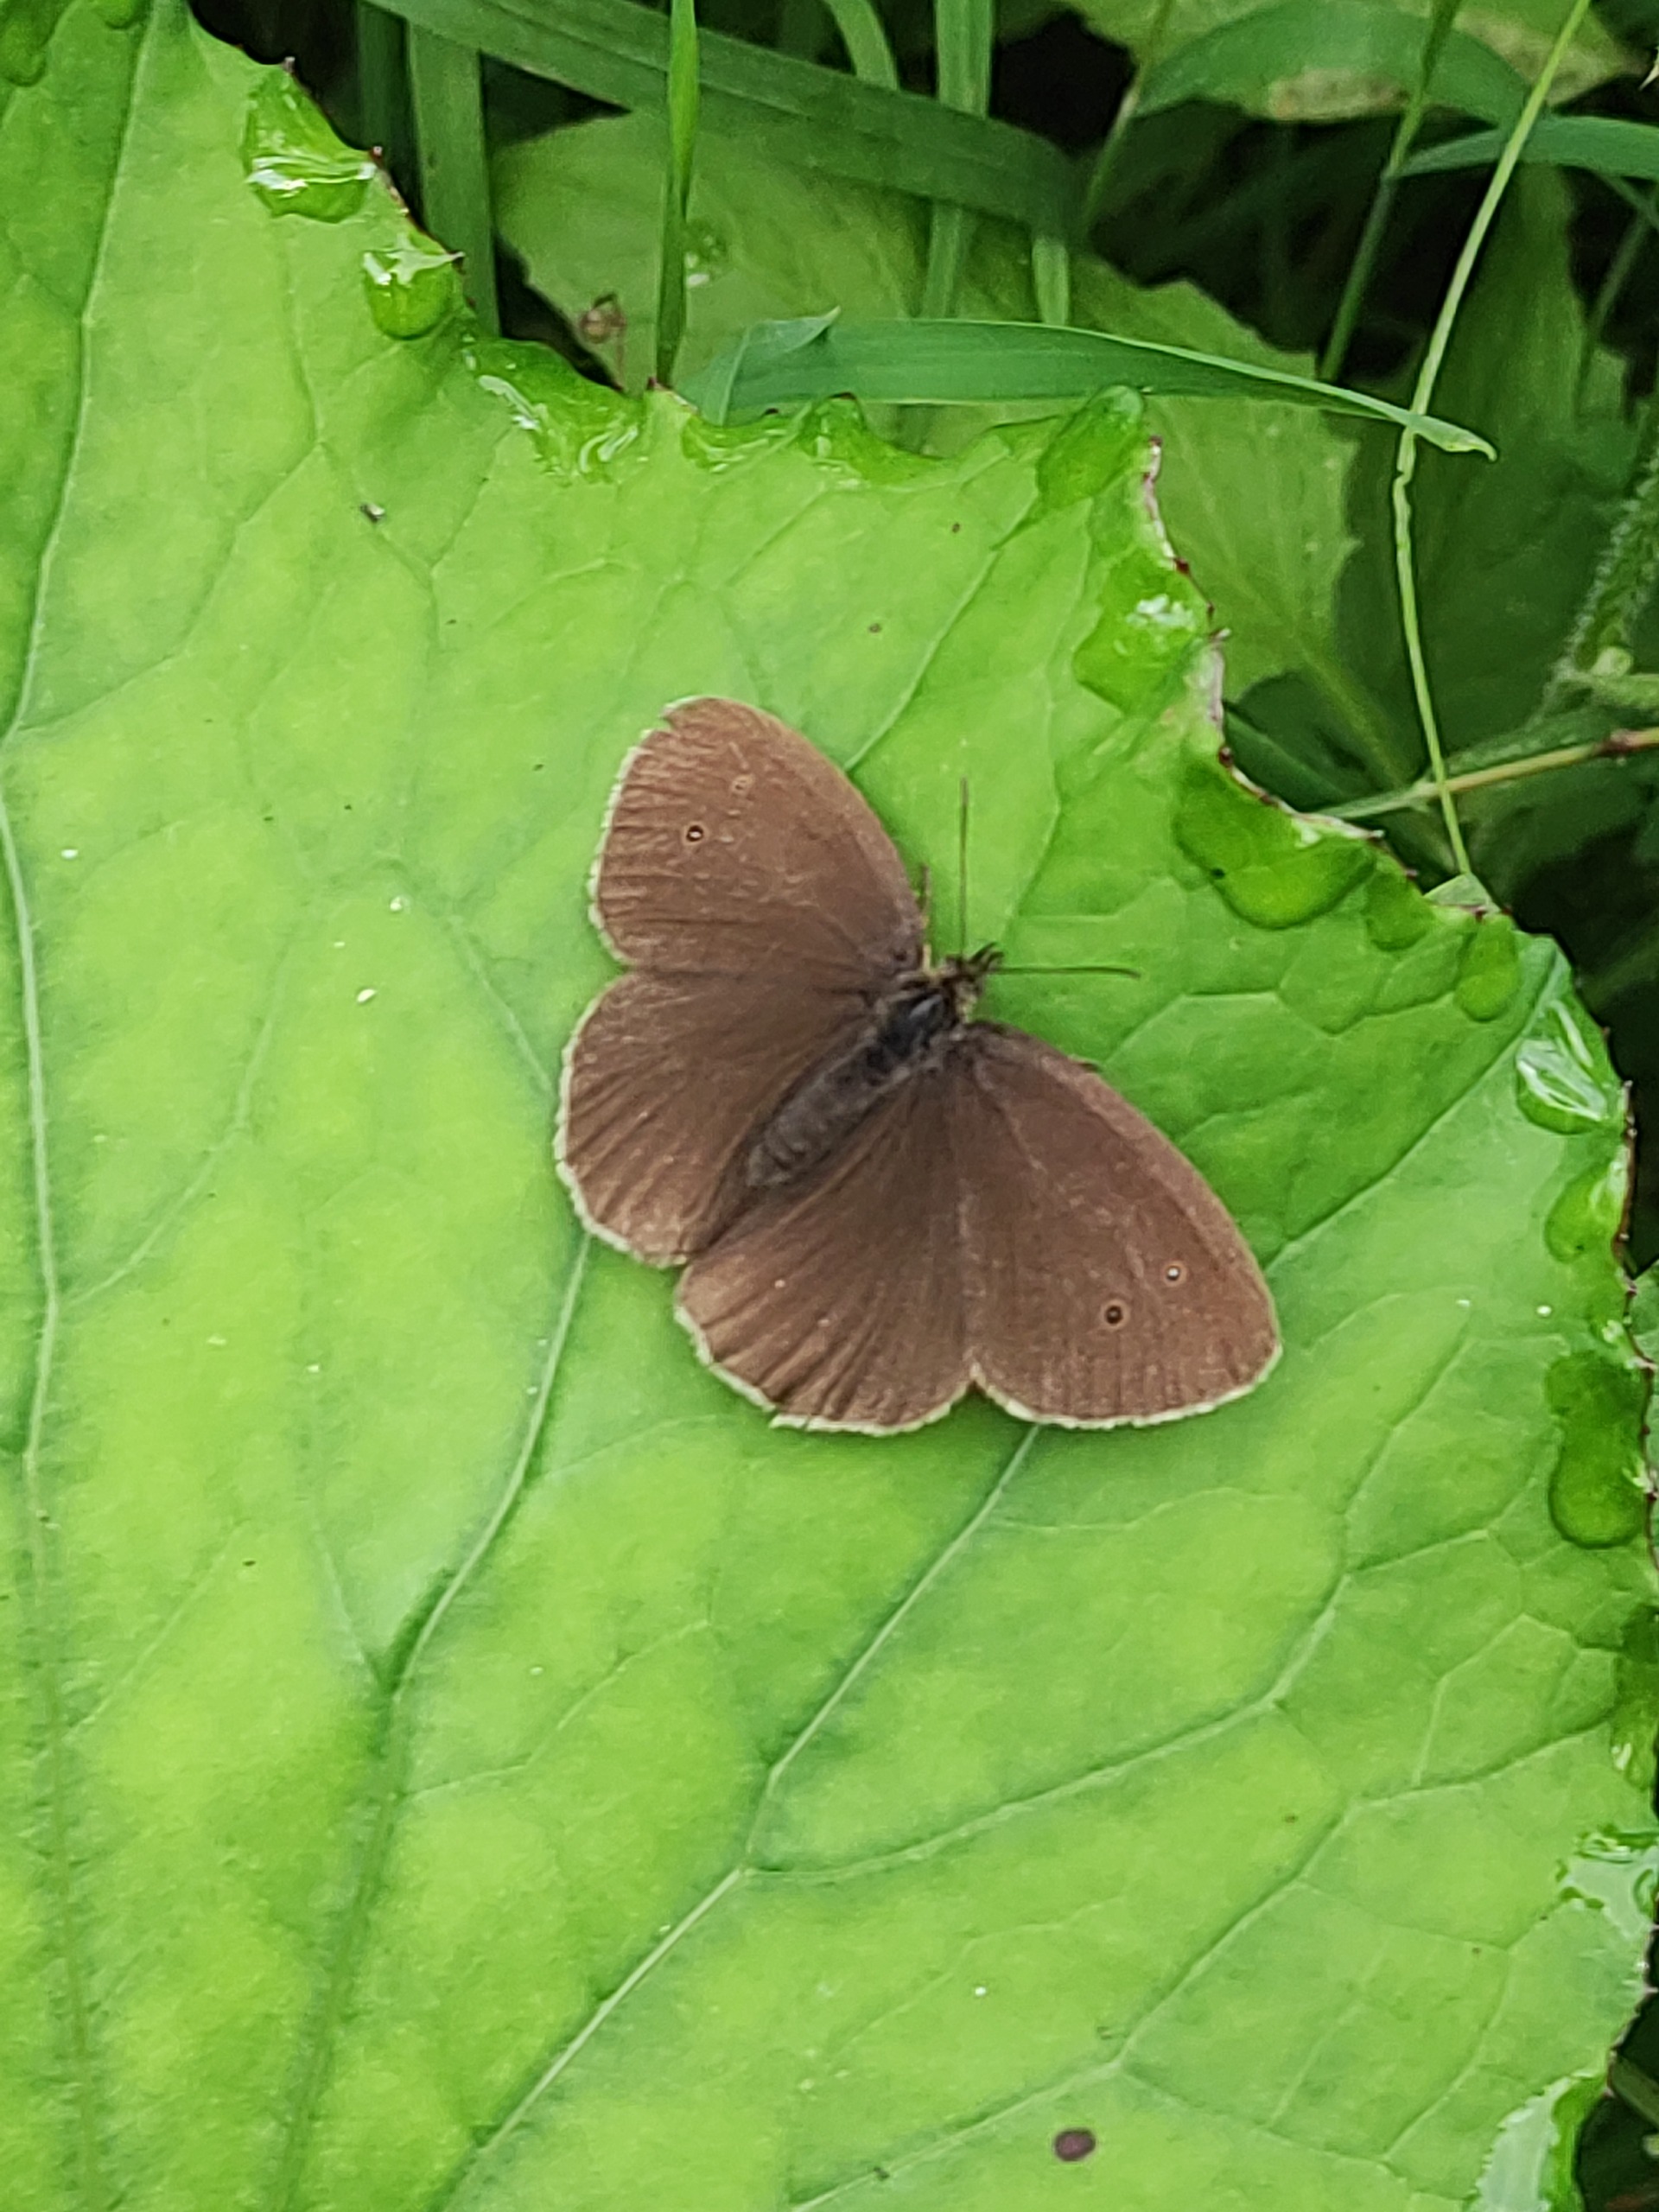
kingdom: Animalia
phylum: Arthropoda
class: Insecta
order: Lepidoptera
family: Nymphalidae
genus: Aphantopus
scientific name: Aphantopus hyperantus
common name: Engrandøje
